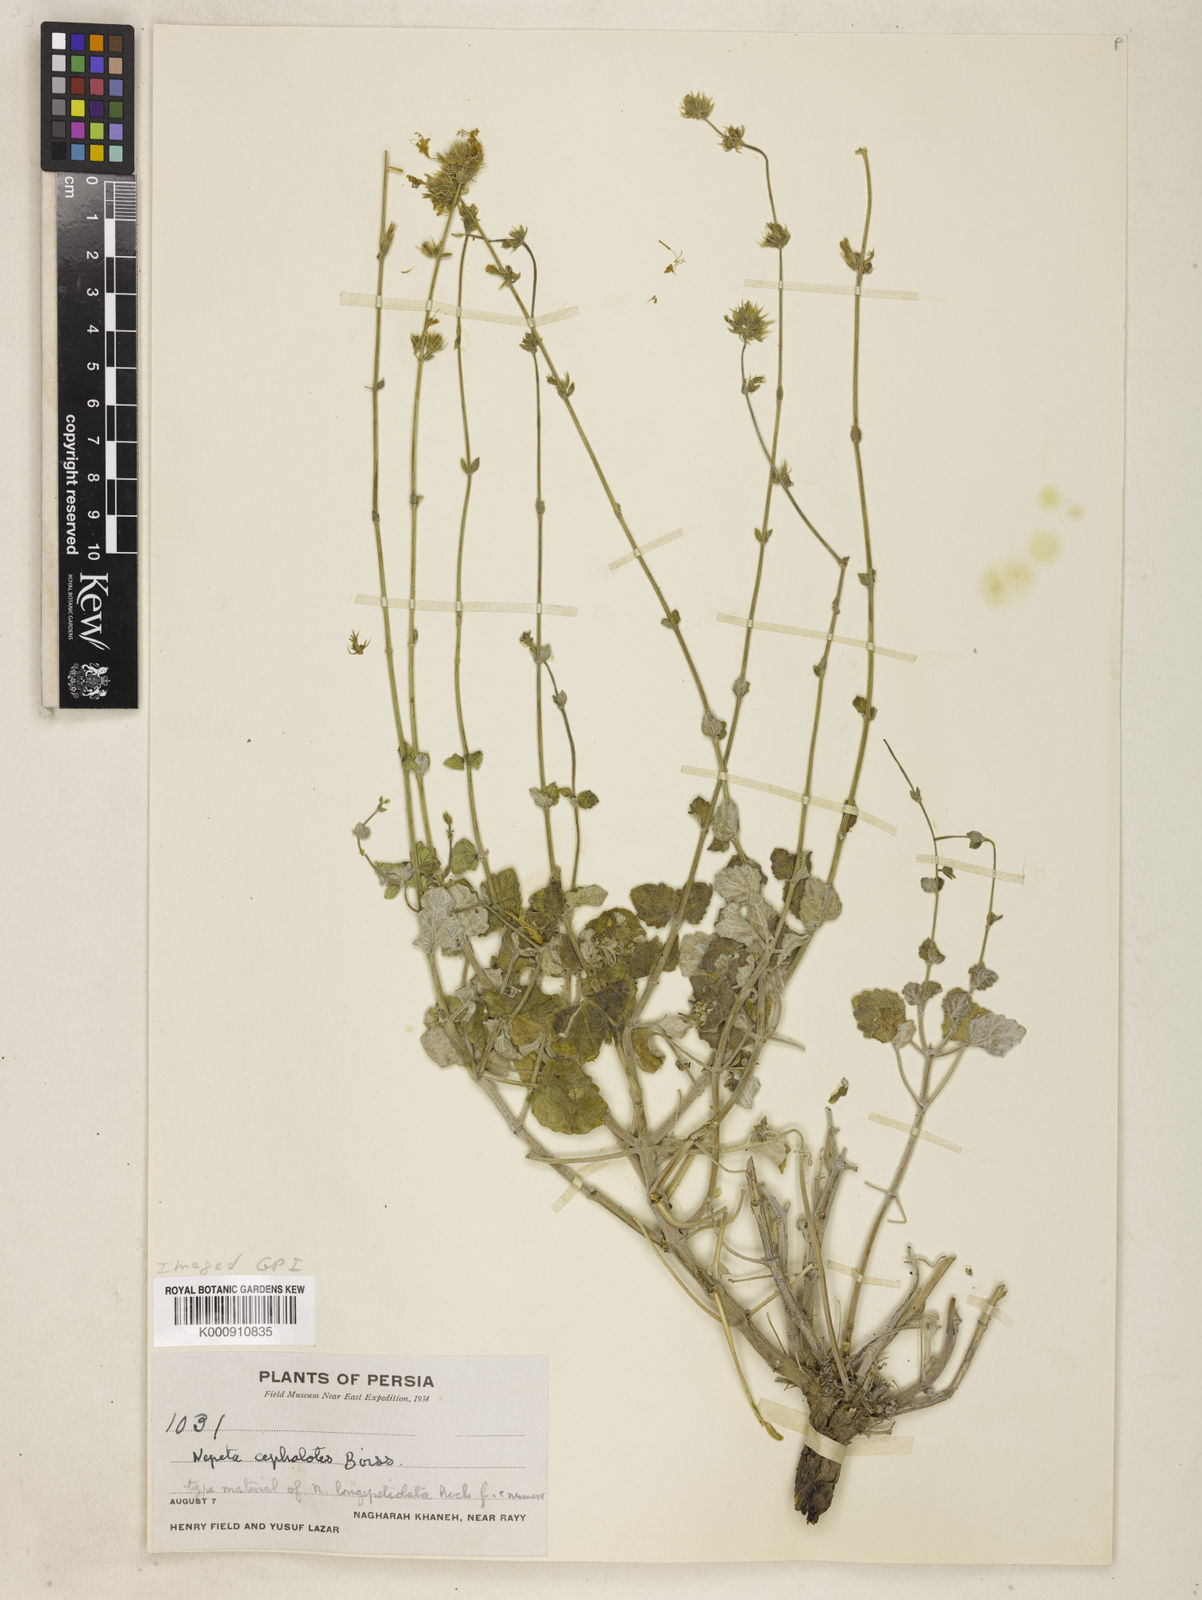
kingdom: Plantae
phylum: Tracheophyta
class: Magnoliopsida
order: Lamiales
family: Lamiaceae
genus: Nepeta
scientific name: Nepeta cephalotes
